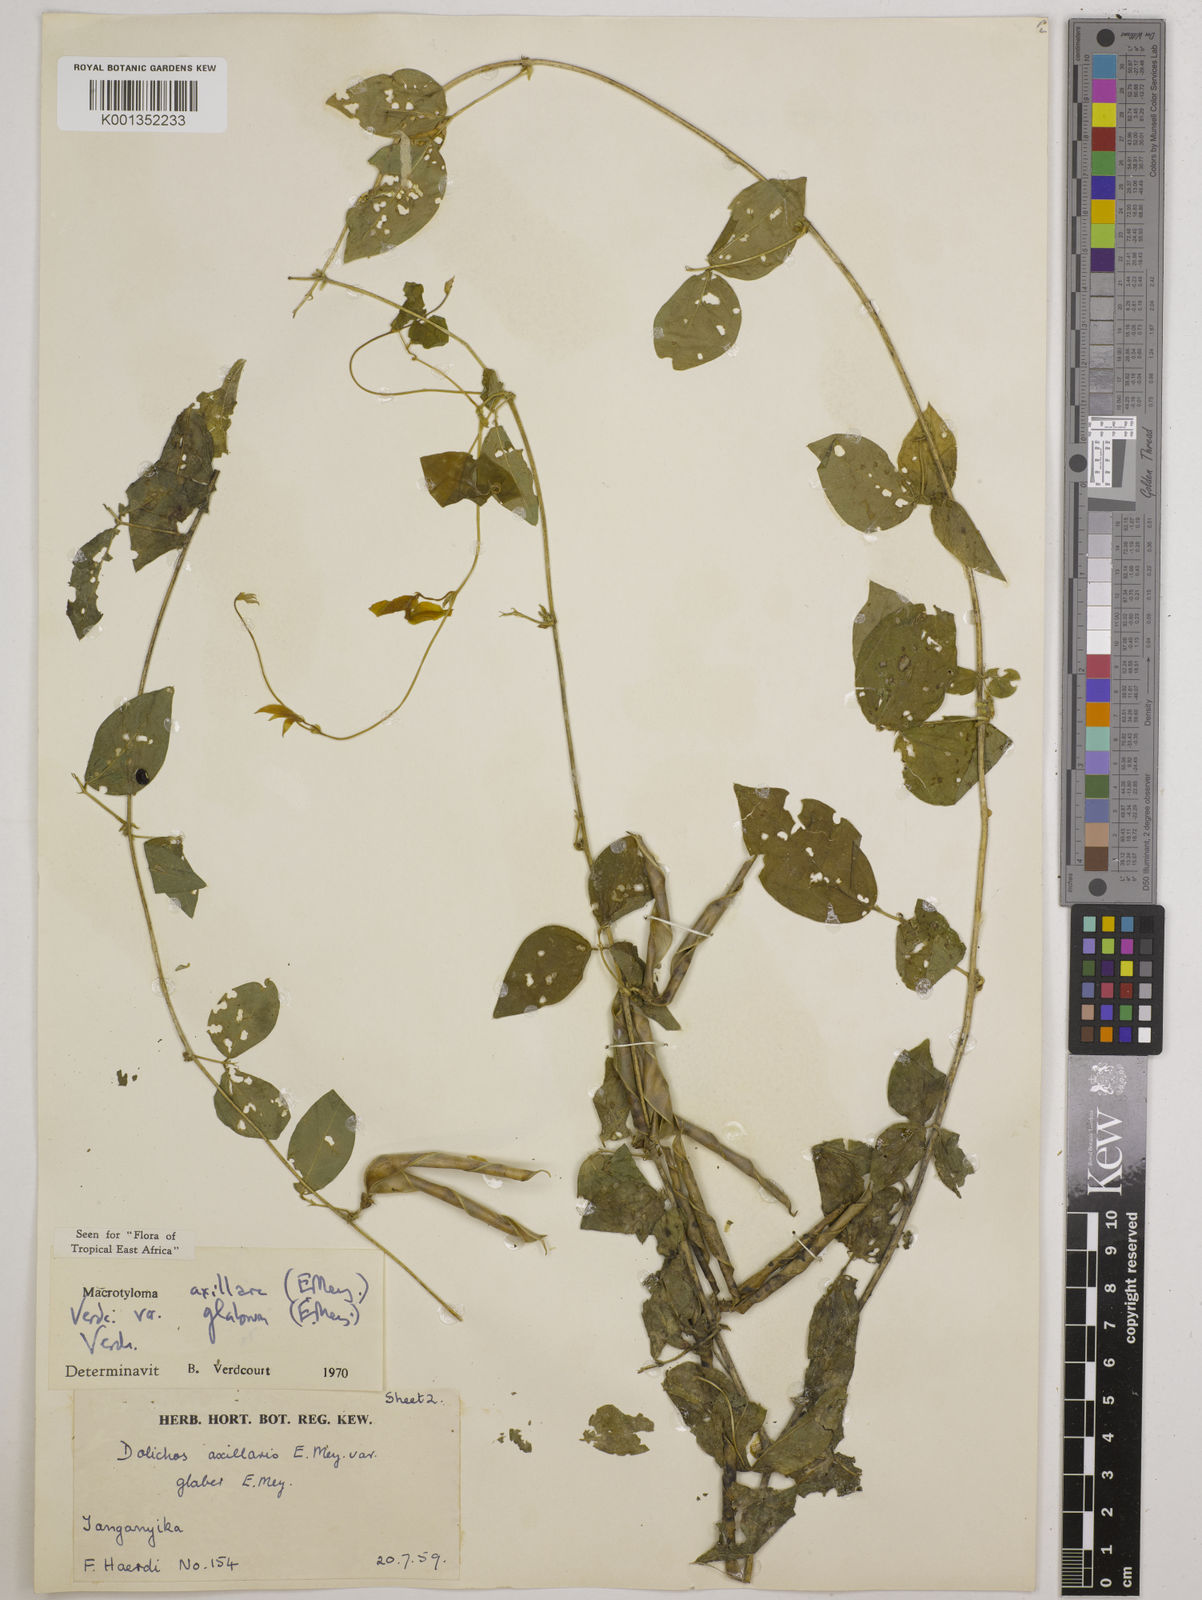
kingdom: Plantae
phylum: Tracheophyta
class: Magnoliopsida
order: Fabales
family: Fabaceae
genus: Macrotyloma
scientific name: Macrotyloma
